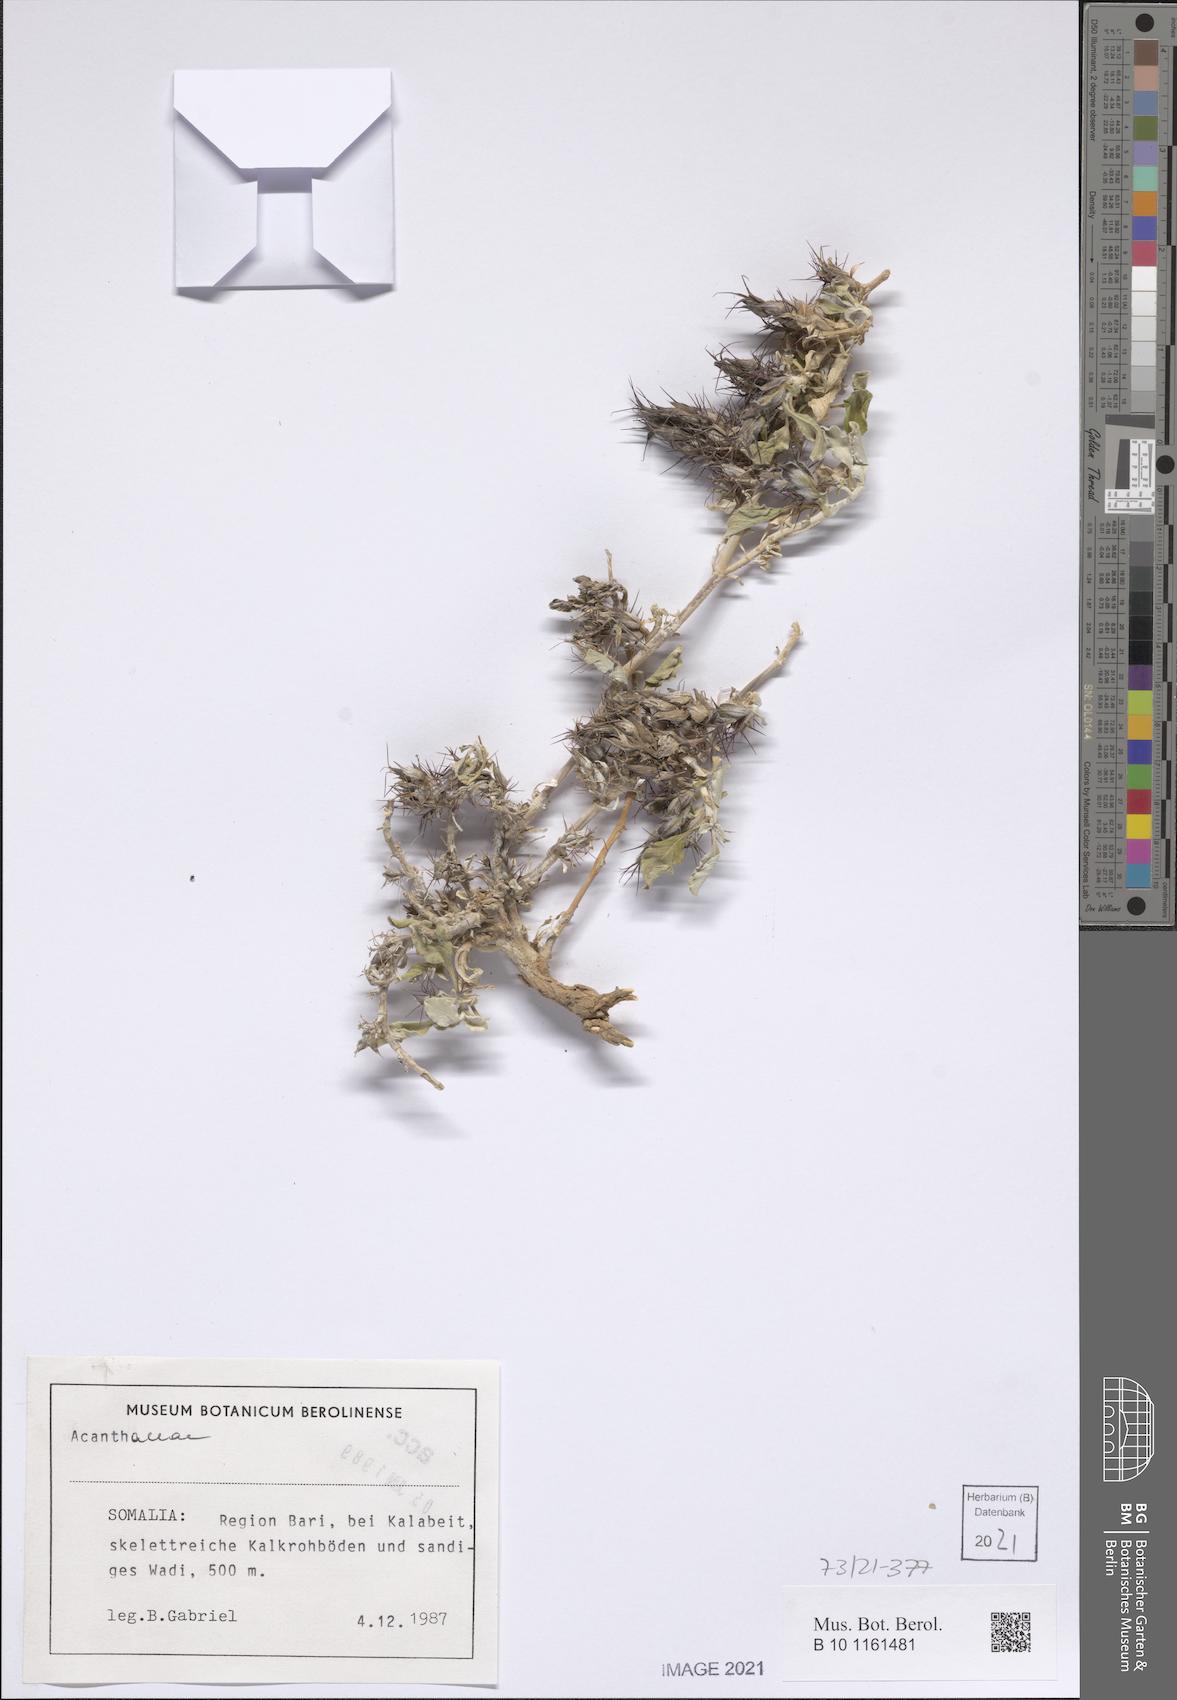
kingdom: Plantae
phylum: Tracheophyta
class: Magnoliopsida
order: Lamiales
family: Acanthaceae
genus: Neuracanthus
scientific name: Neuracanthus robecchii
